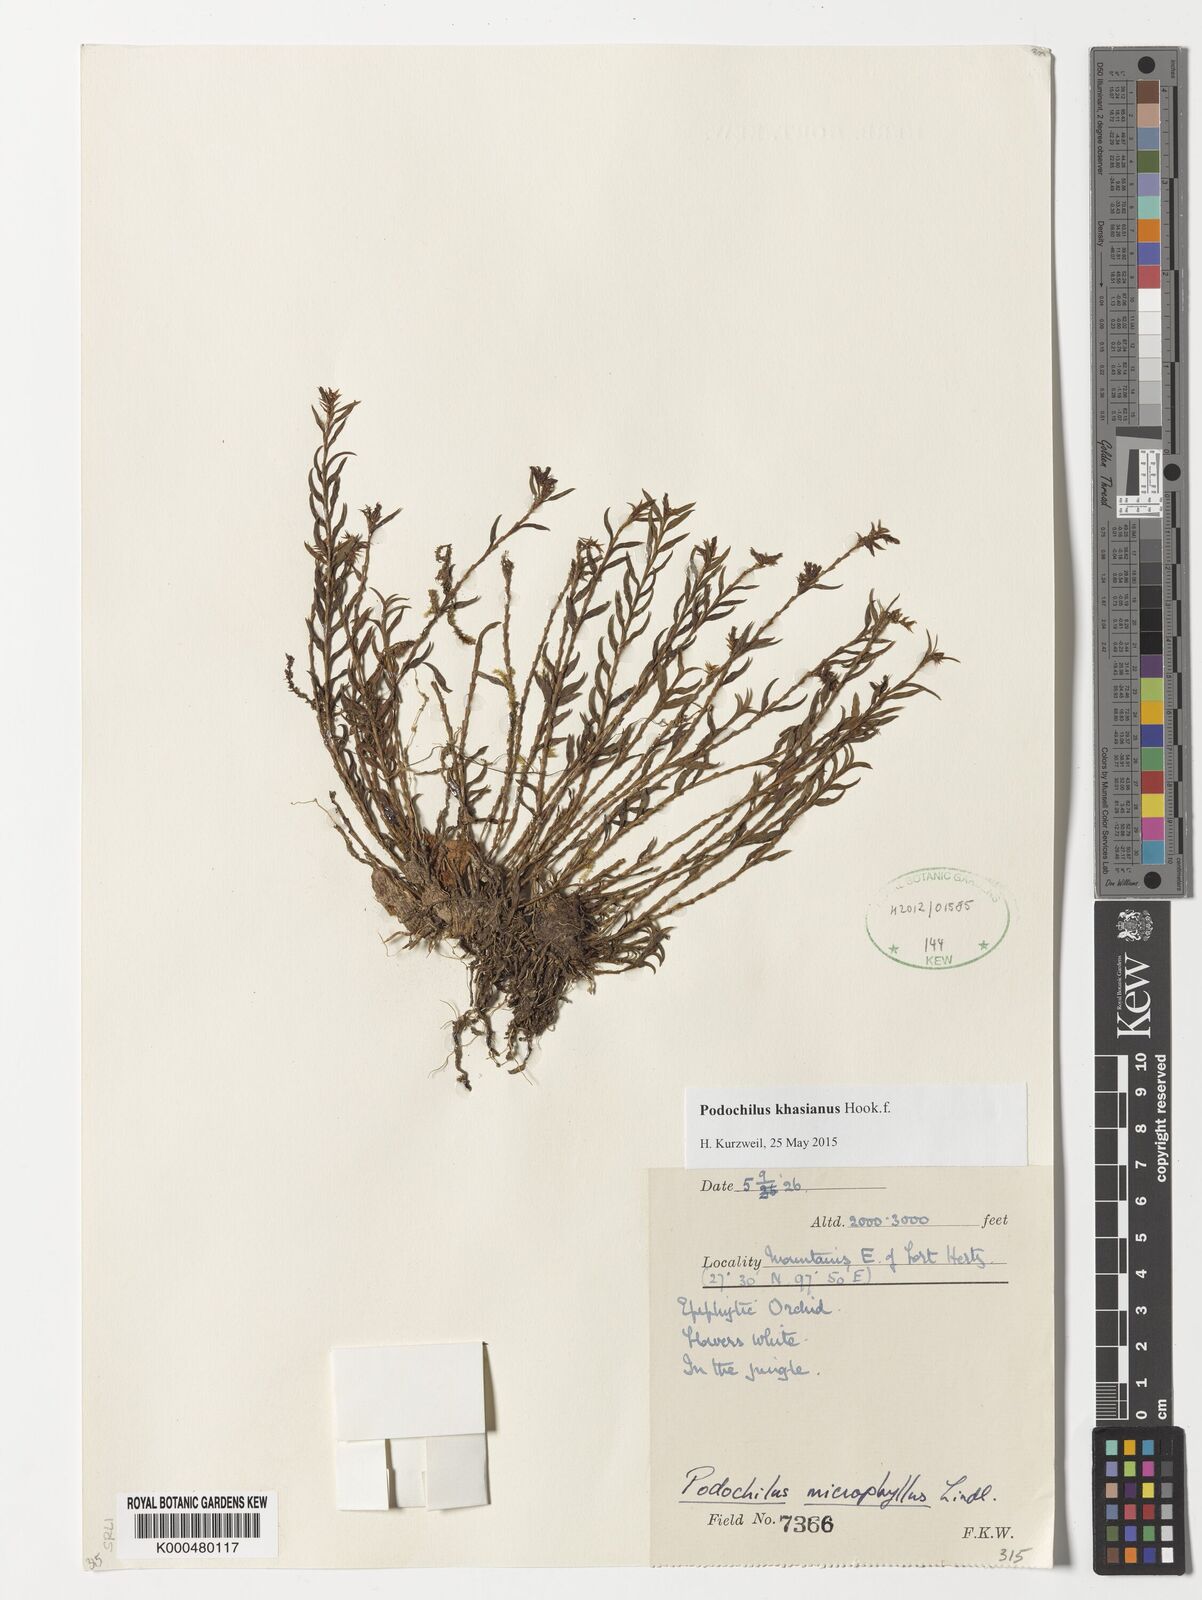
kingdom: Plantae
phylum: Tracheophyta
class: Liliopsida
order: Asparagales
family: Orchidaceae
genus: Podochilus
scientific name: Podochilus khasianus
